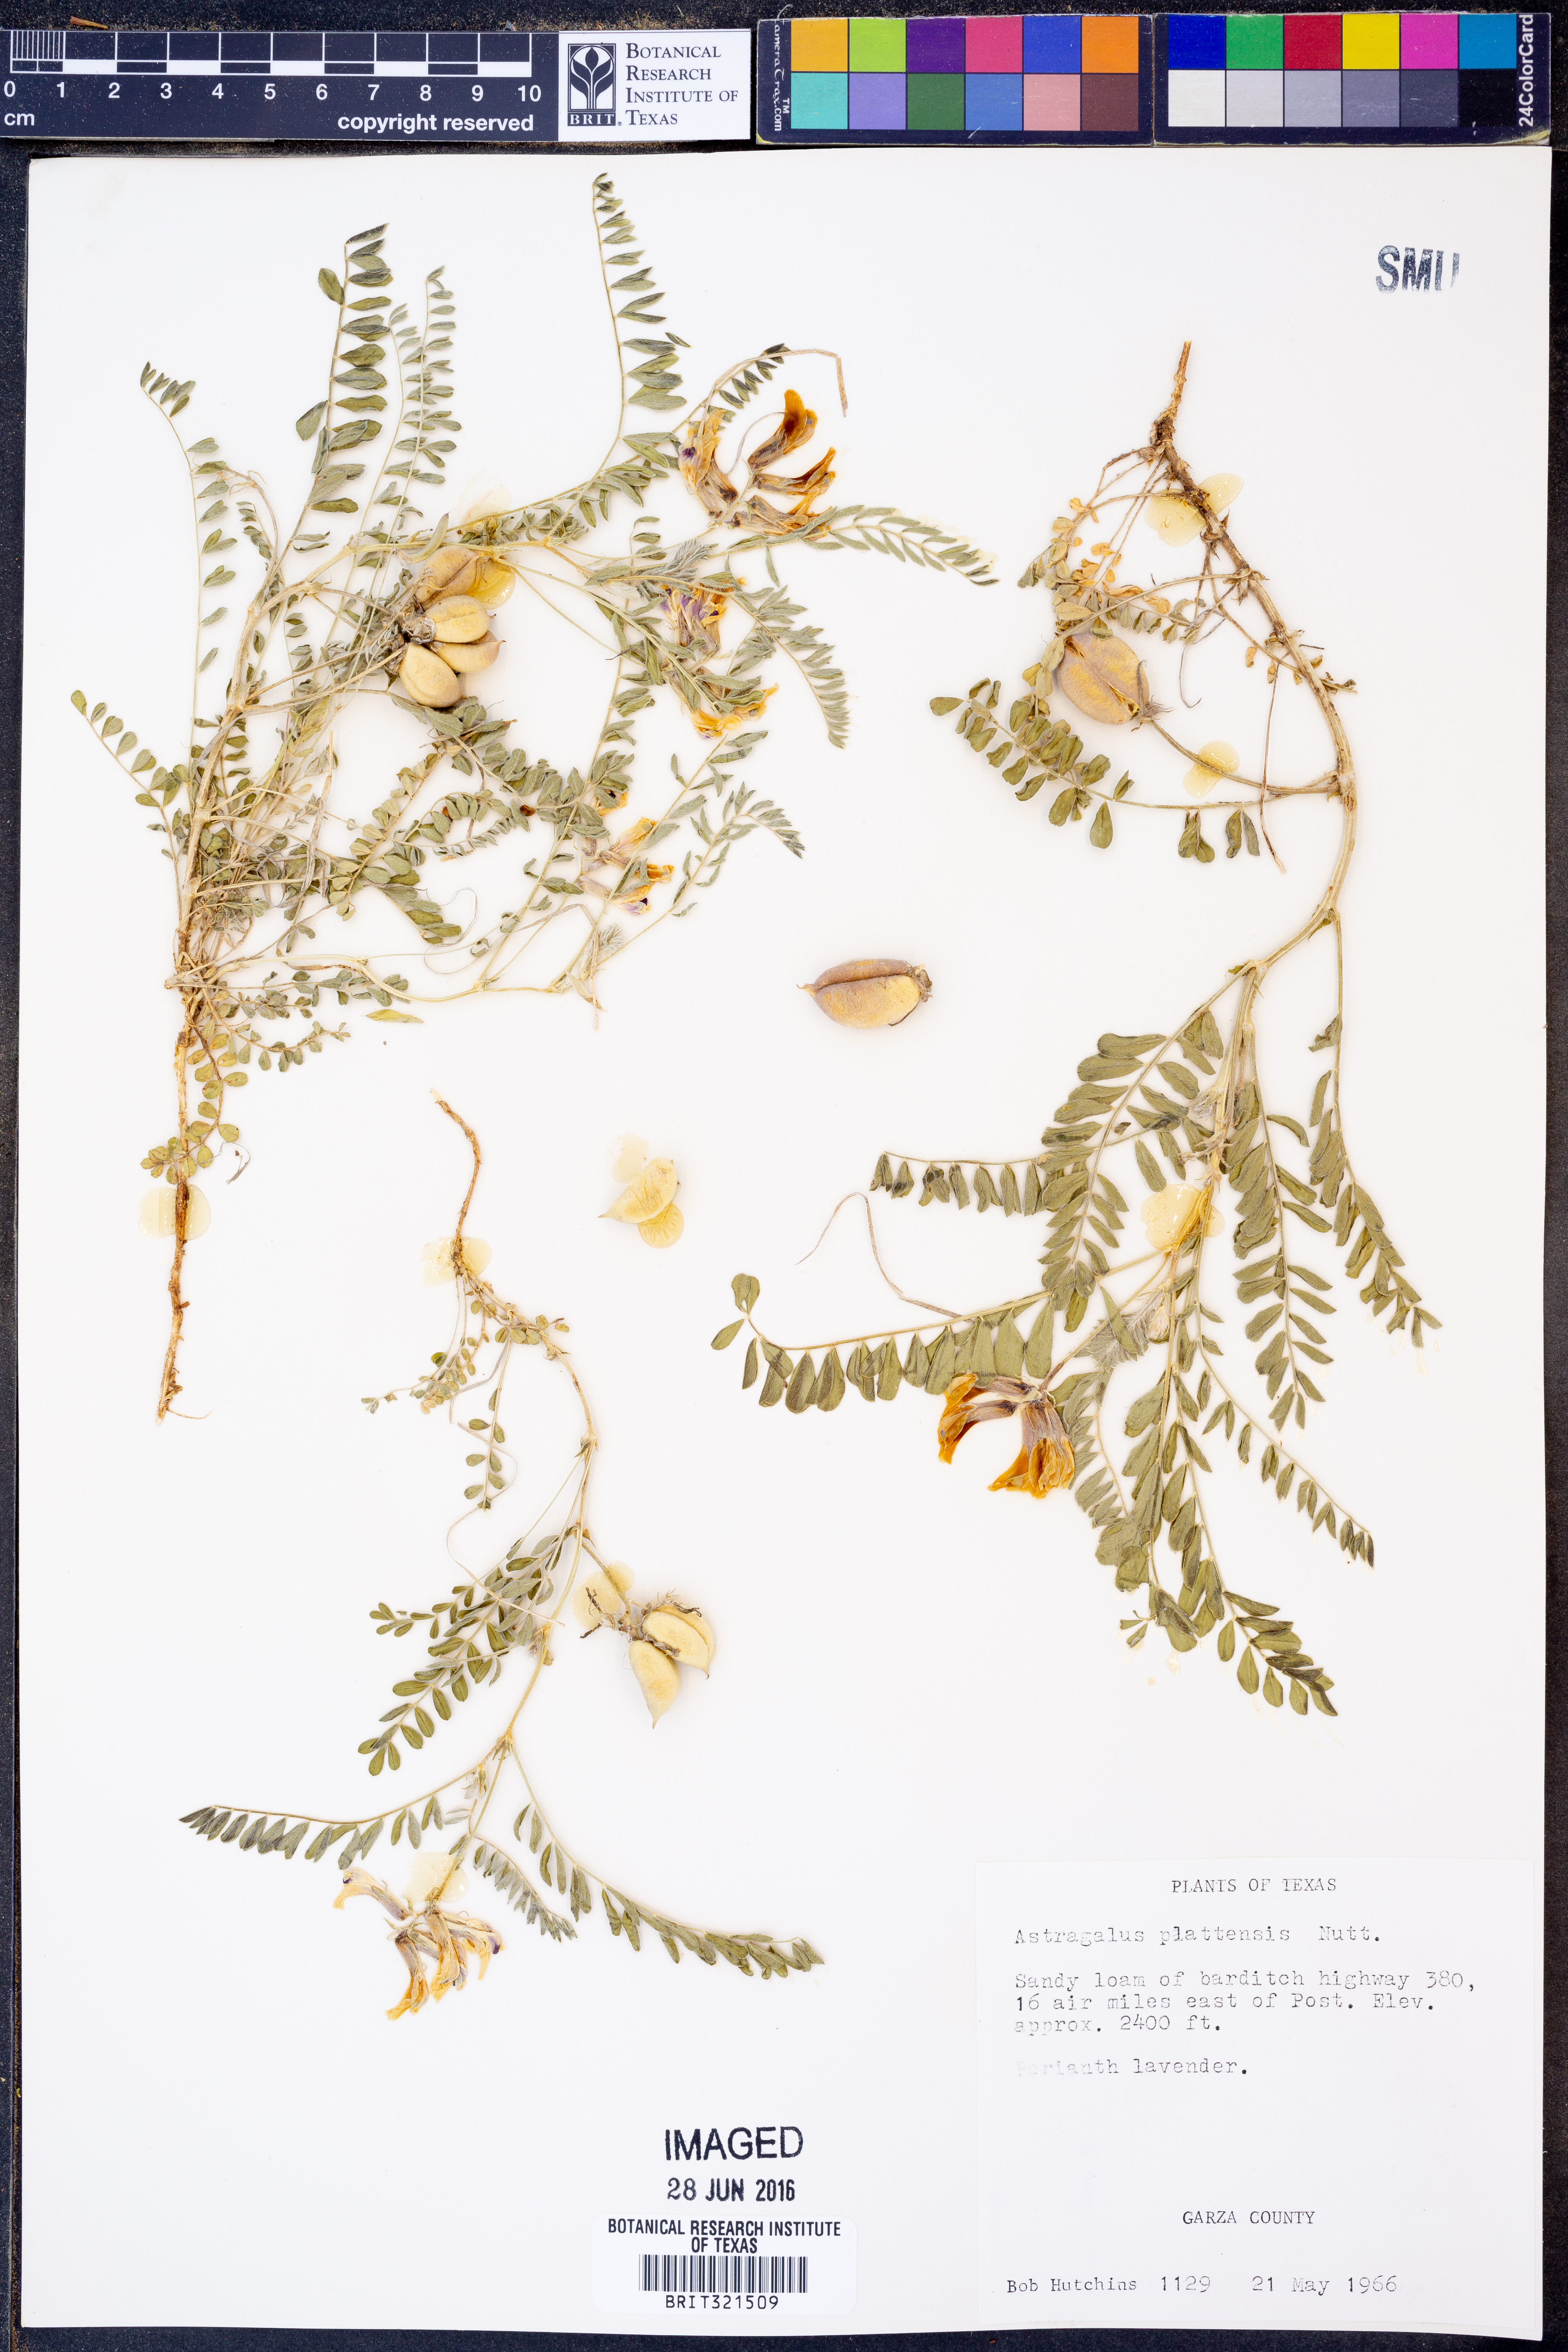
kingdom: Plantae
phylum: Tracheophyta
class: Magnoliopsida
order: Fabales
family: Fabaceae
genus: Astragalus
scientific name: Astragalus plattensis
